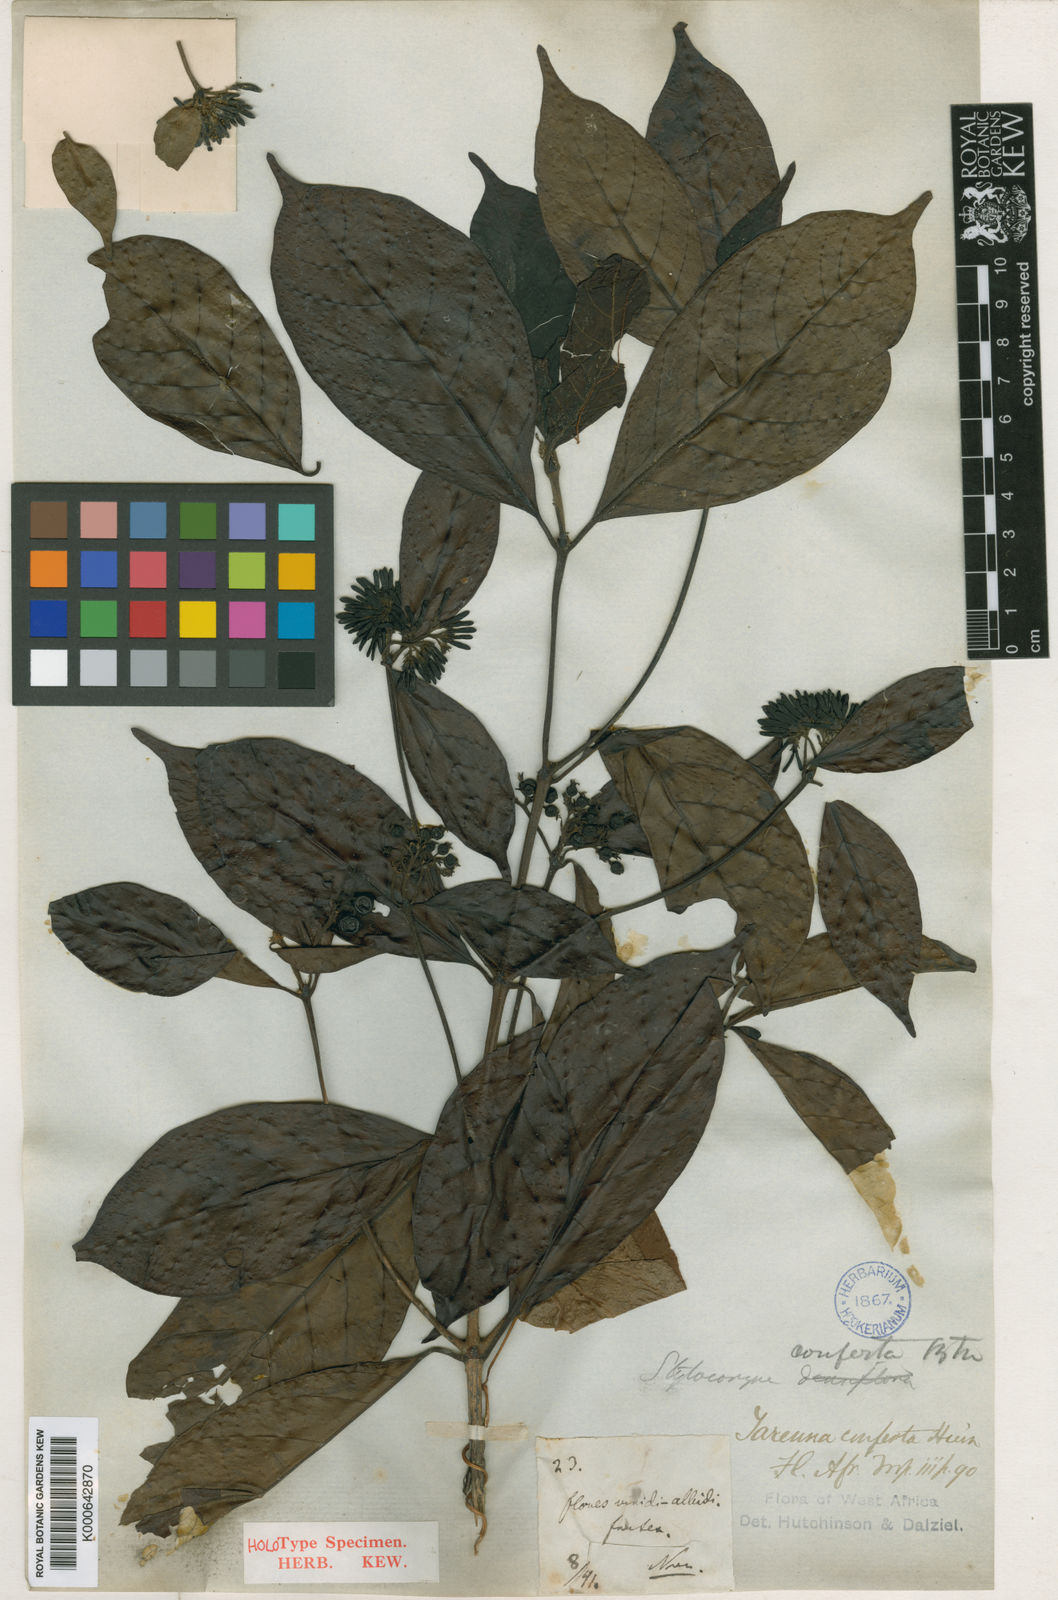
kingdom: Plantae
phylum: Tracheophyta
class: Magnoliopsida
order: Gentianales
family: Rubiaceae
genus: Tarenna
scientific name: Tarenna conferta
